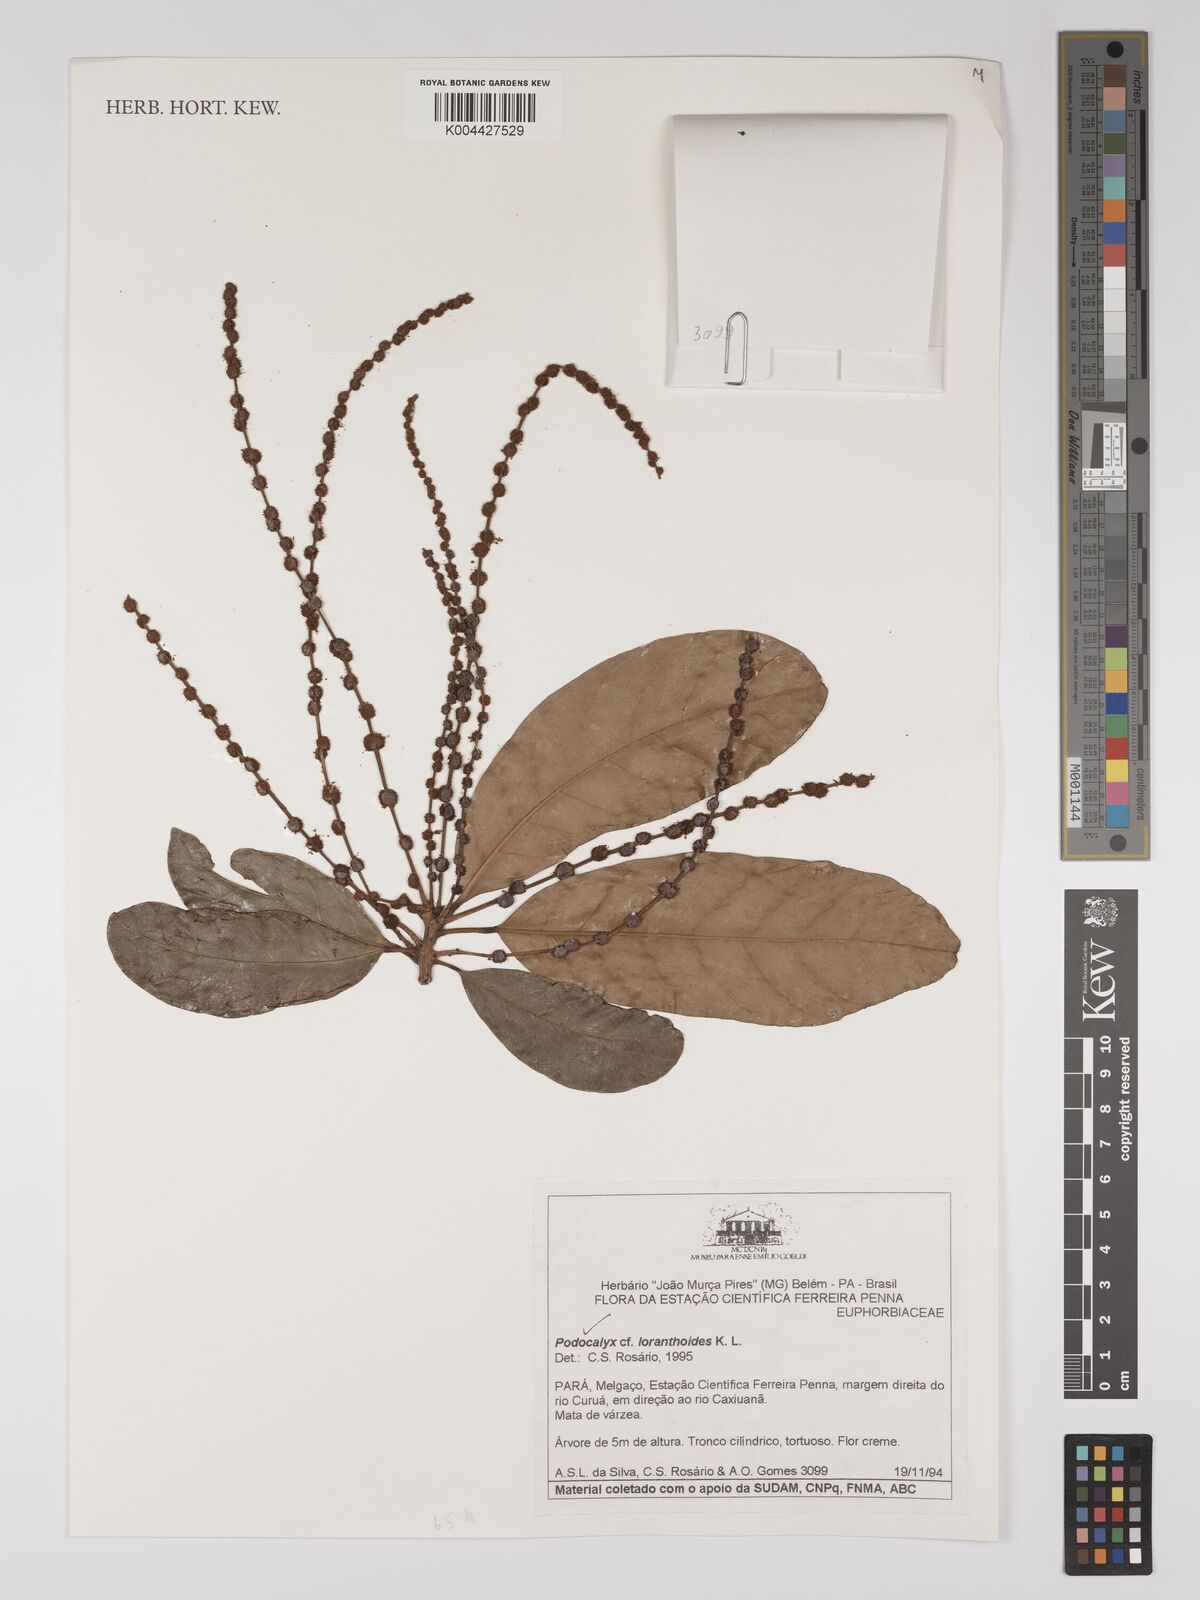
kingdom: Plantae
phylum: Tracheophyta
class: Magnoliopsida
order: Malpighiales
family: Picrodendraceae
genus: Podocalyx
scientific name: Podocalyx loranthoides
